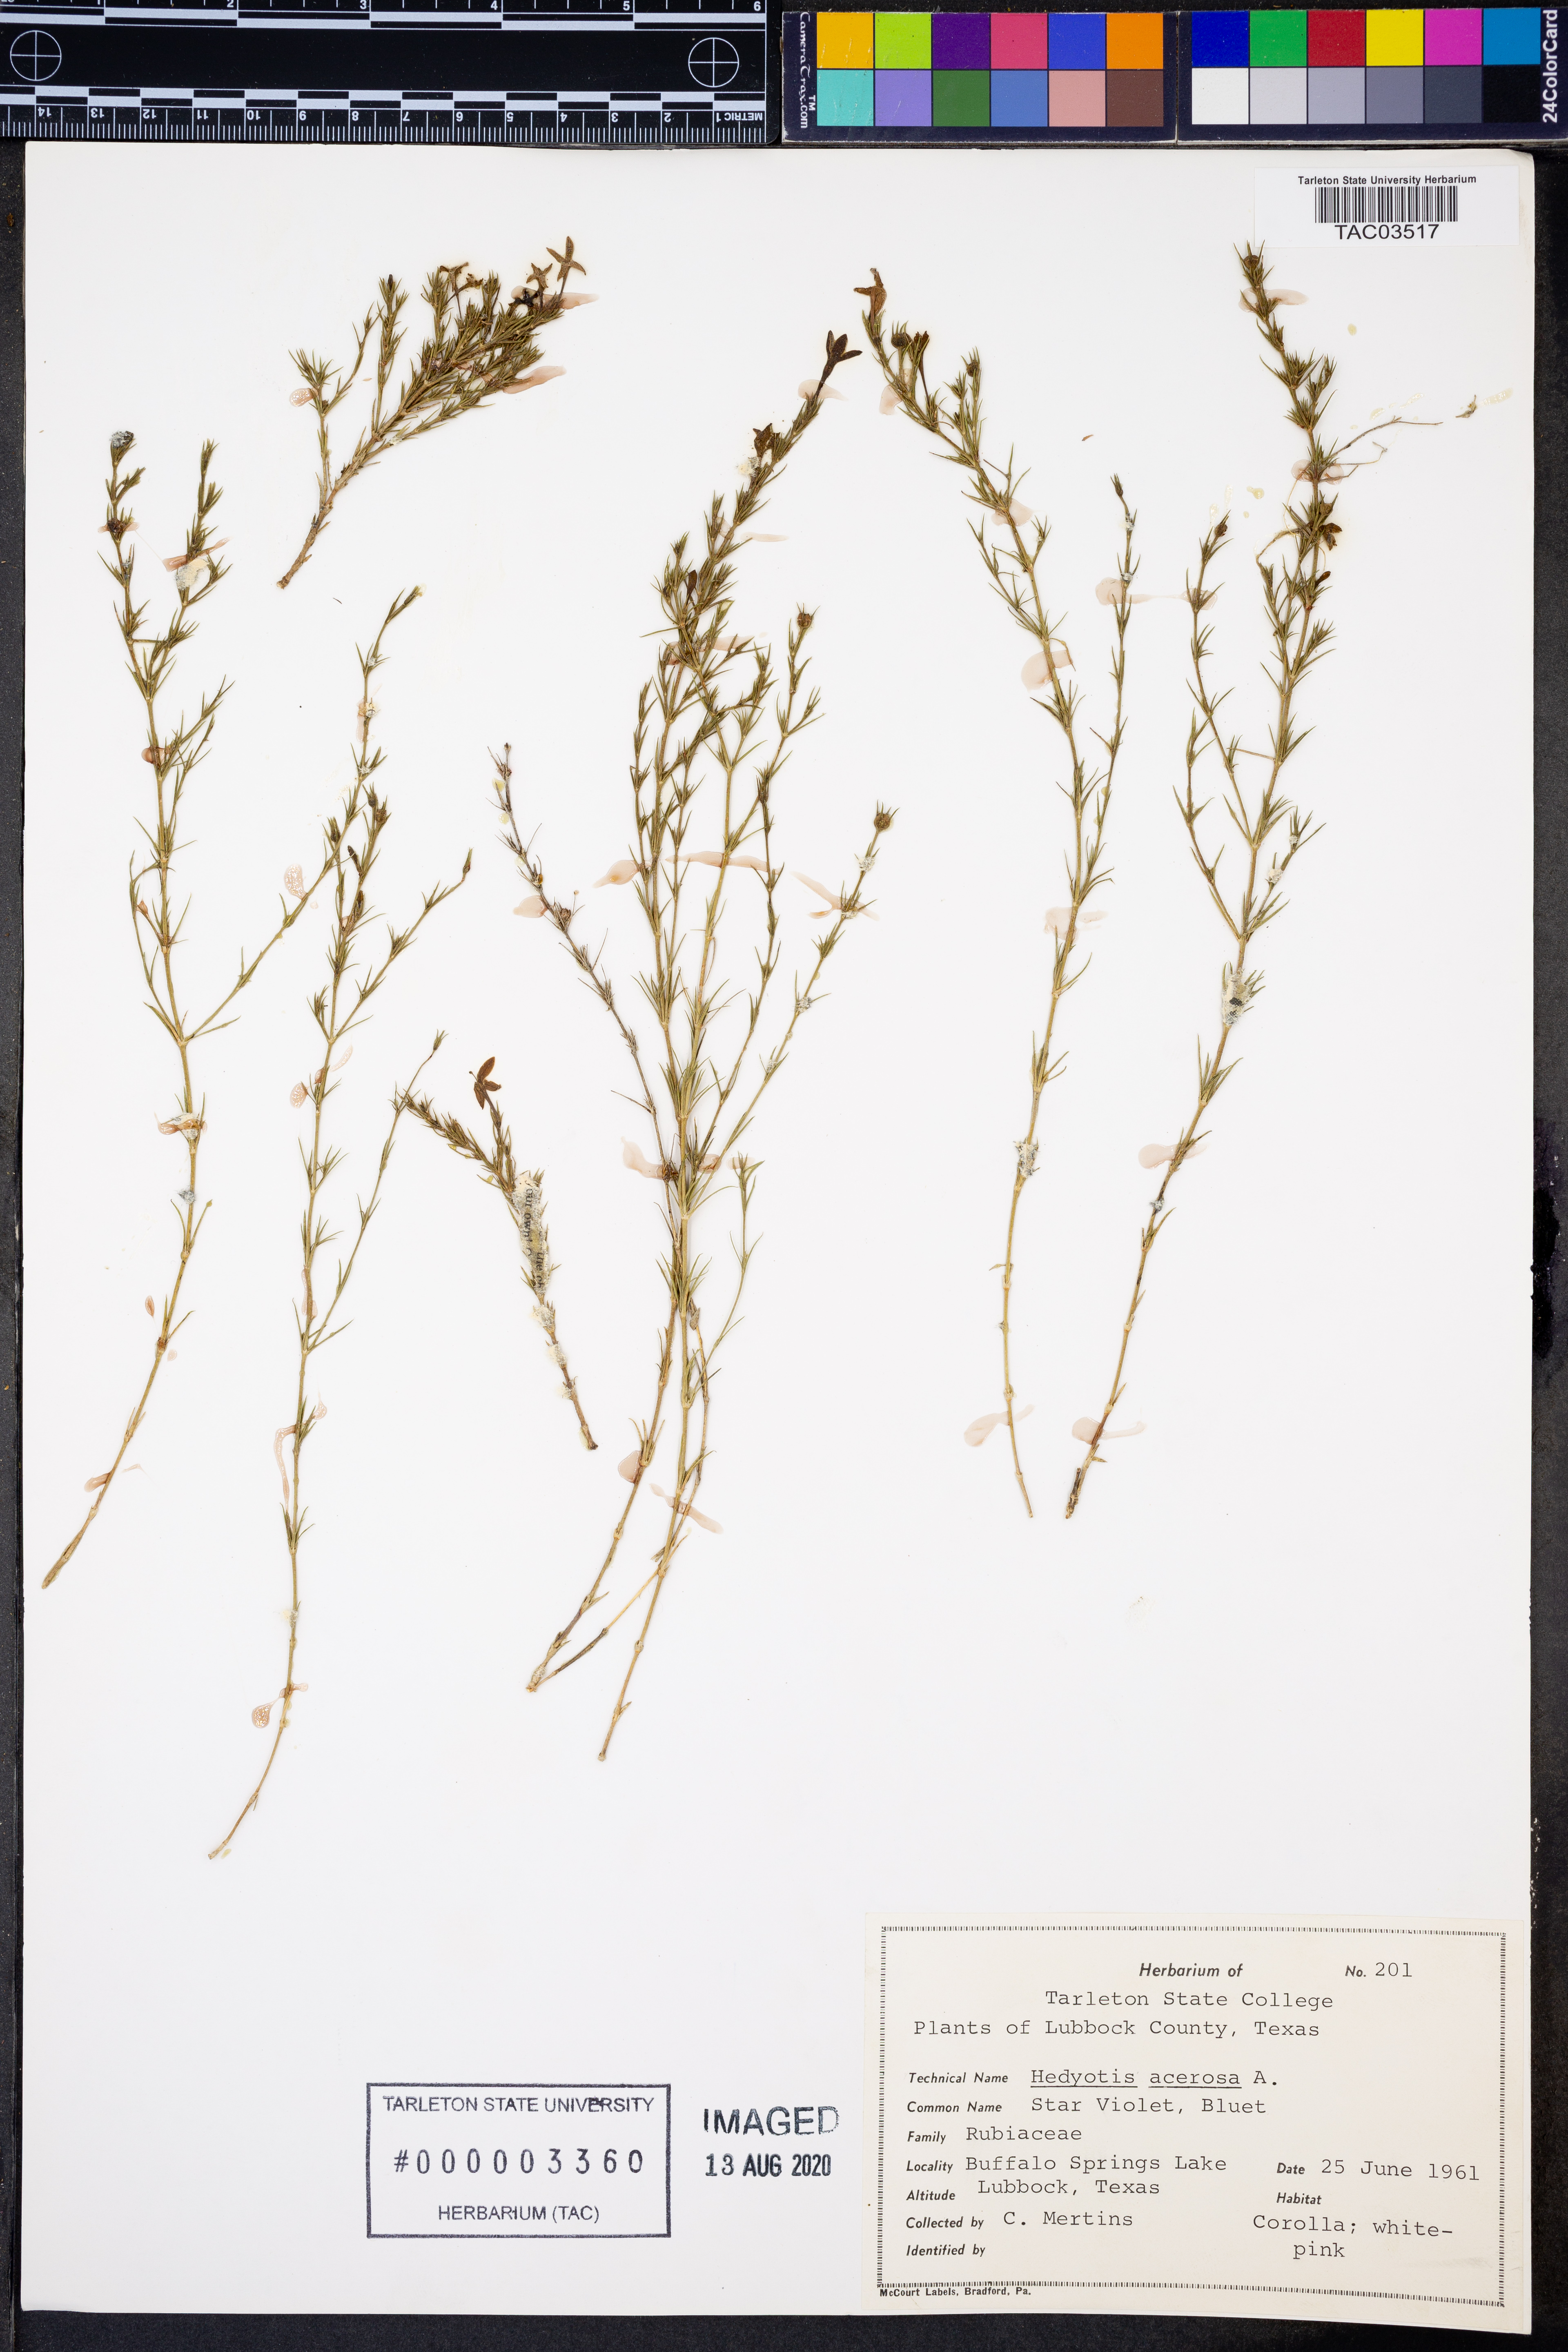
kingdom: Plantae
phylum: Tracheophyta
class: Magnoliopsida
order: Gentianales
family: Rubiaceae
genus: Houstonia
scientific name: Houstonia acerosa
